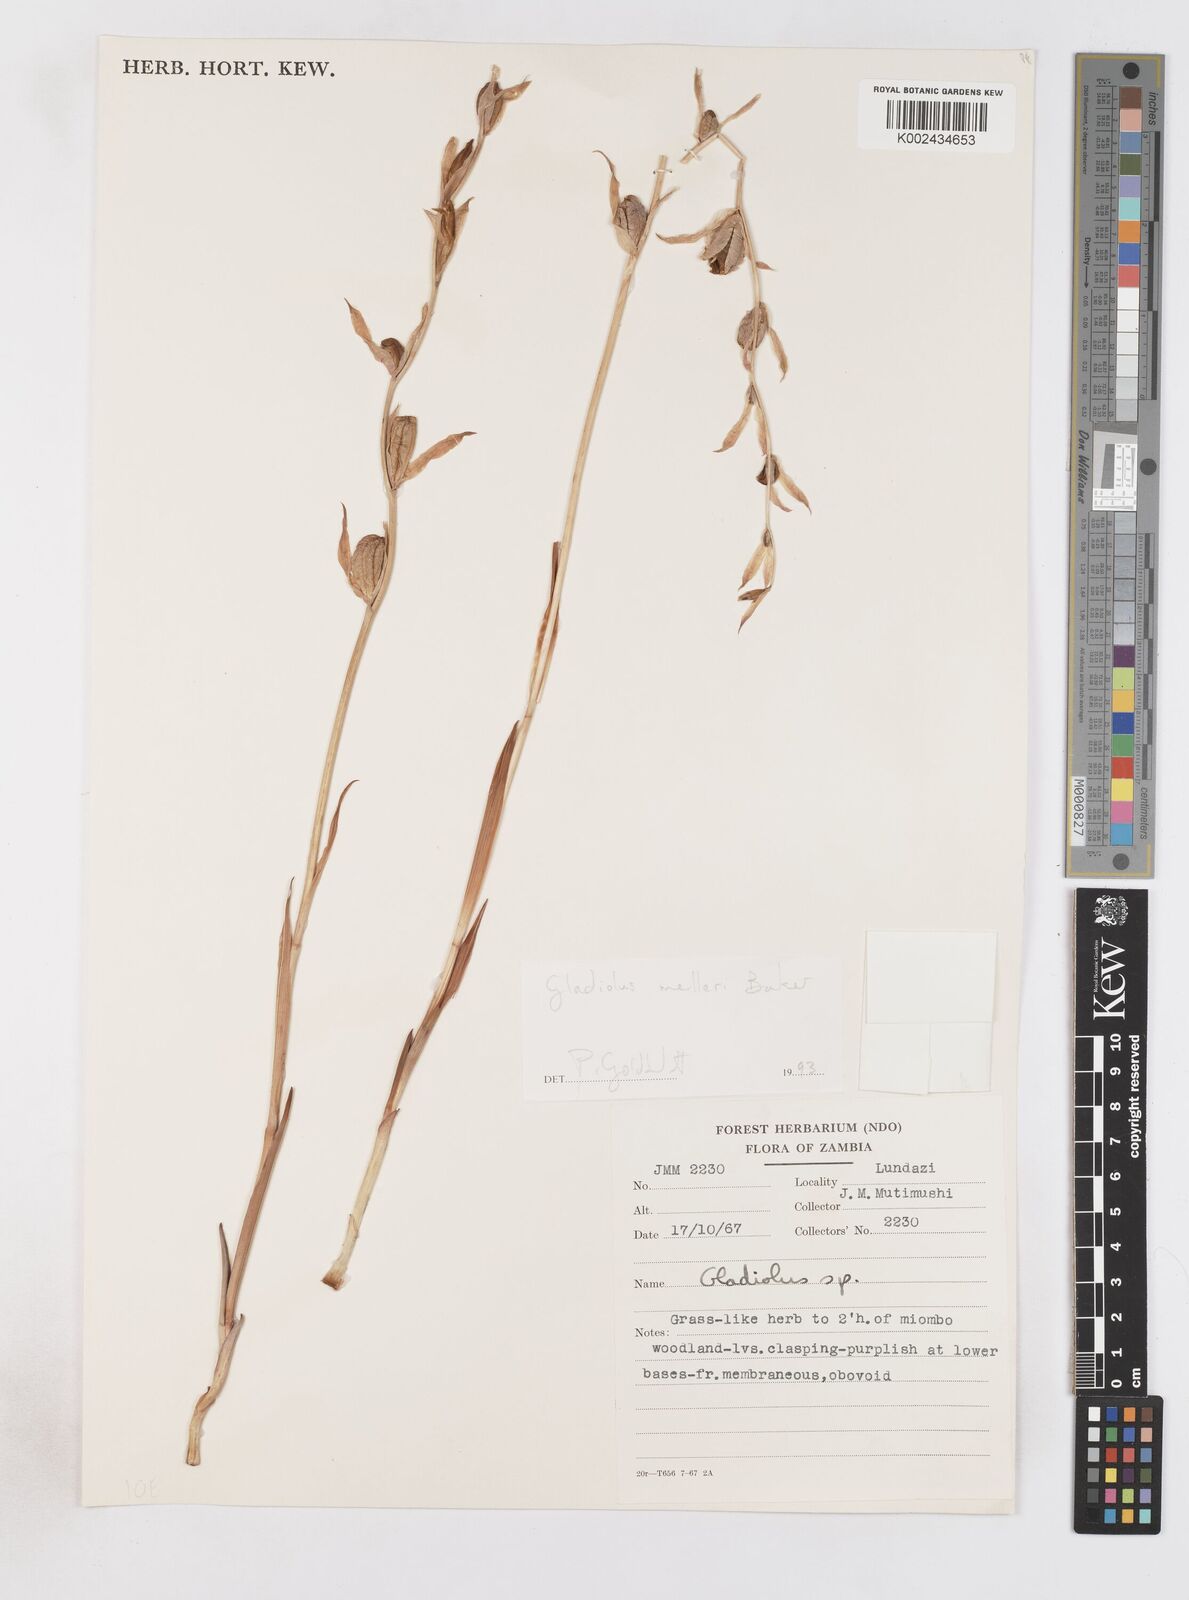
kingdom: Plantae
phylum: Tracheophyta
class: Liliopsida
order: Asparagales
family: Iridaceae
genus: Gladiolus
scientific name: Gladiolus melleri
